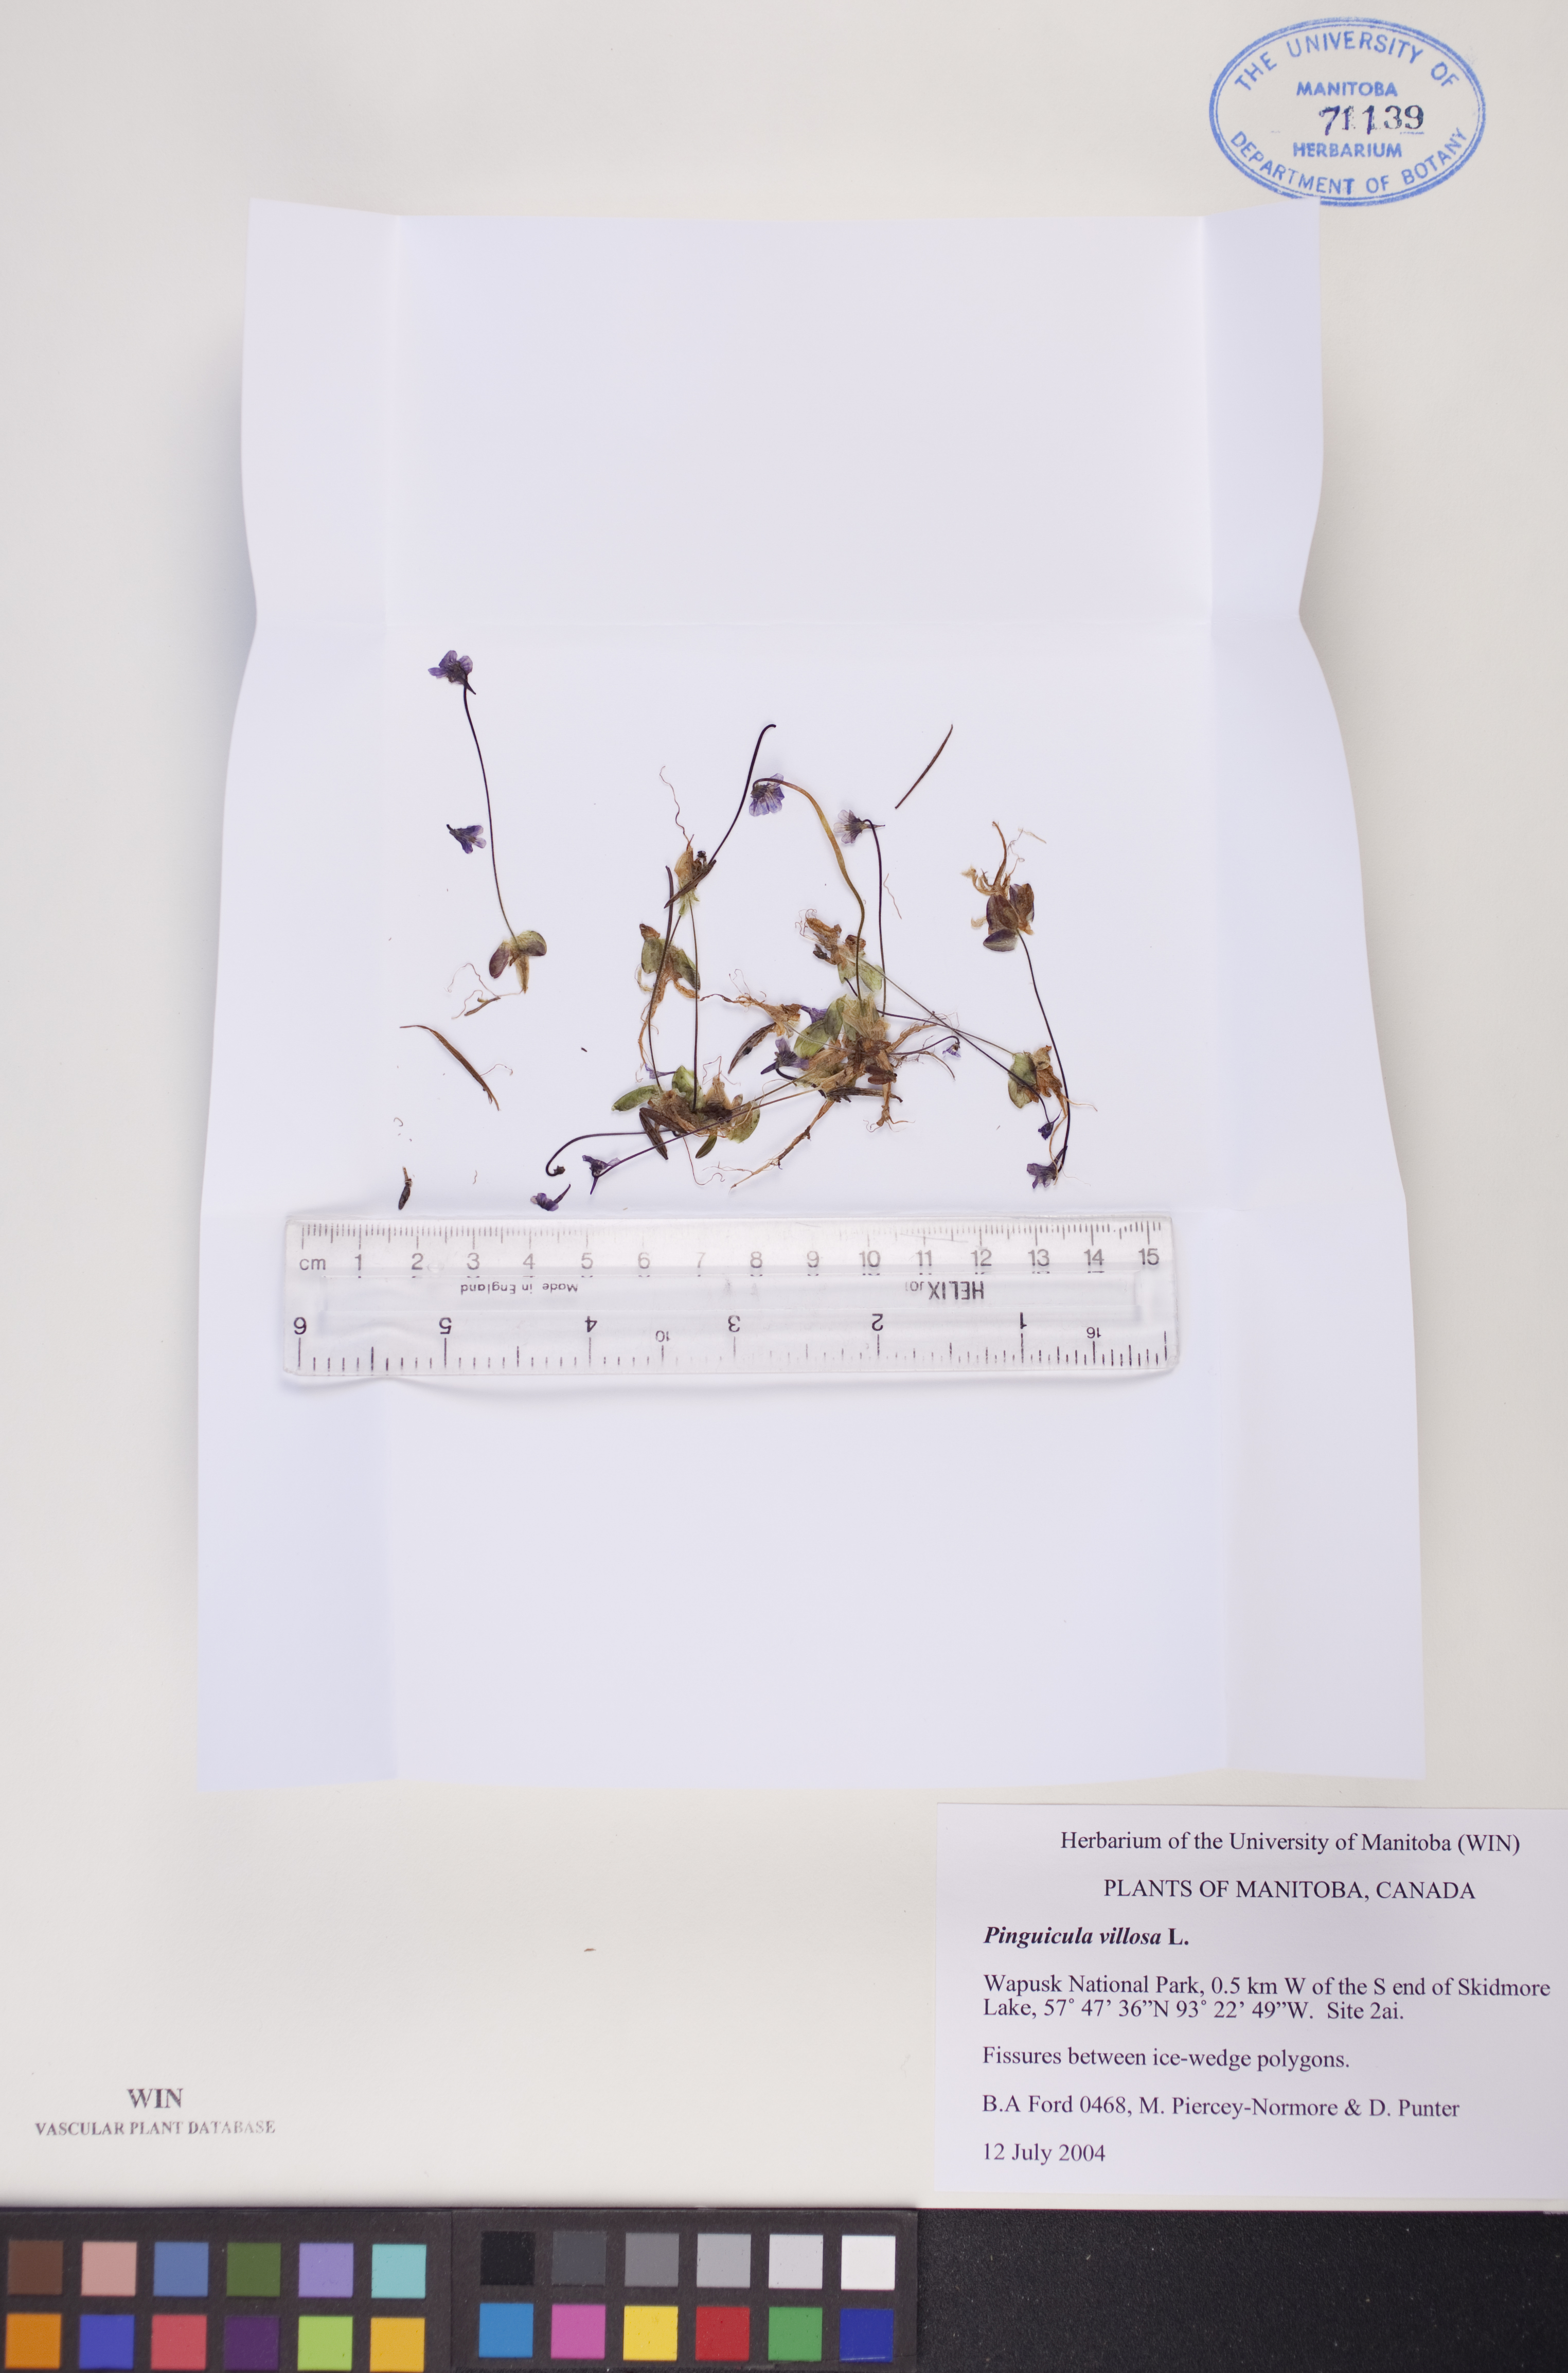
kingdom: Plantae
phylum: Tracheophyta
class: Magnoliopsida
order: Lamiales
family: Lentibulariaceae
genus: Pinguicula
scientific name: Pinguicula villosa
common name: Hairy butterwort
